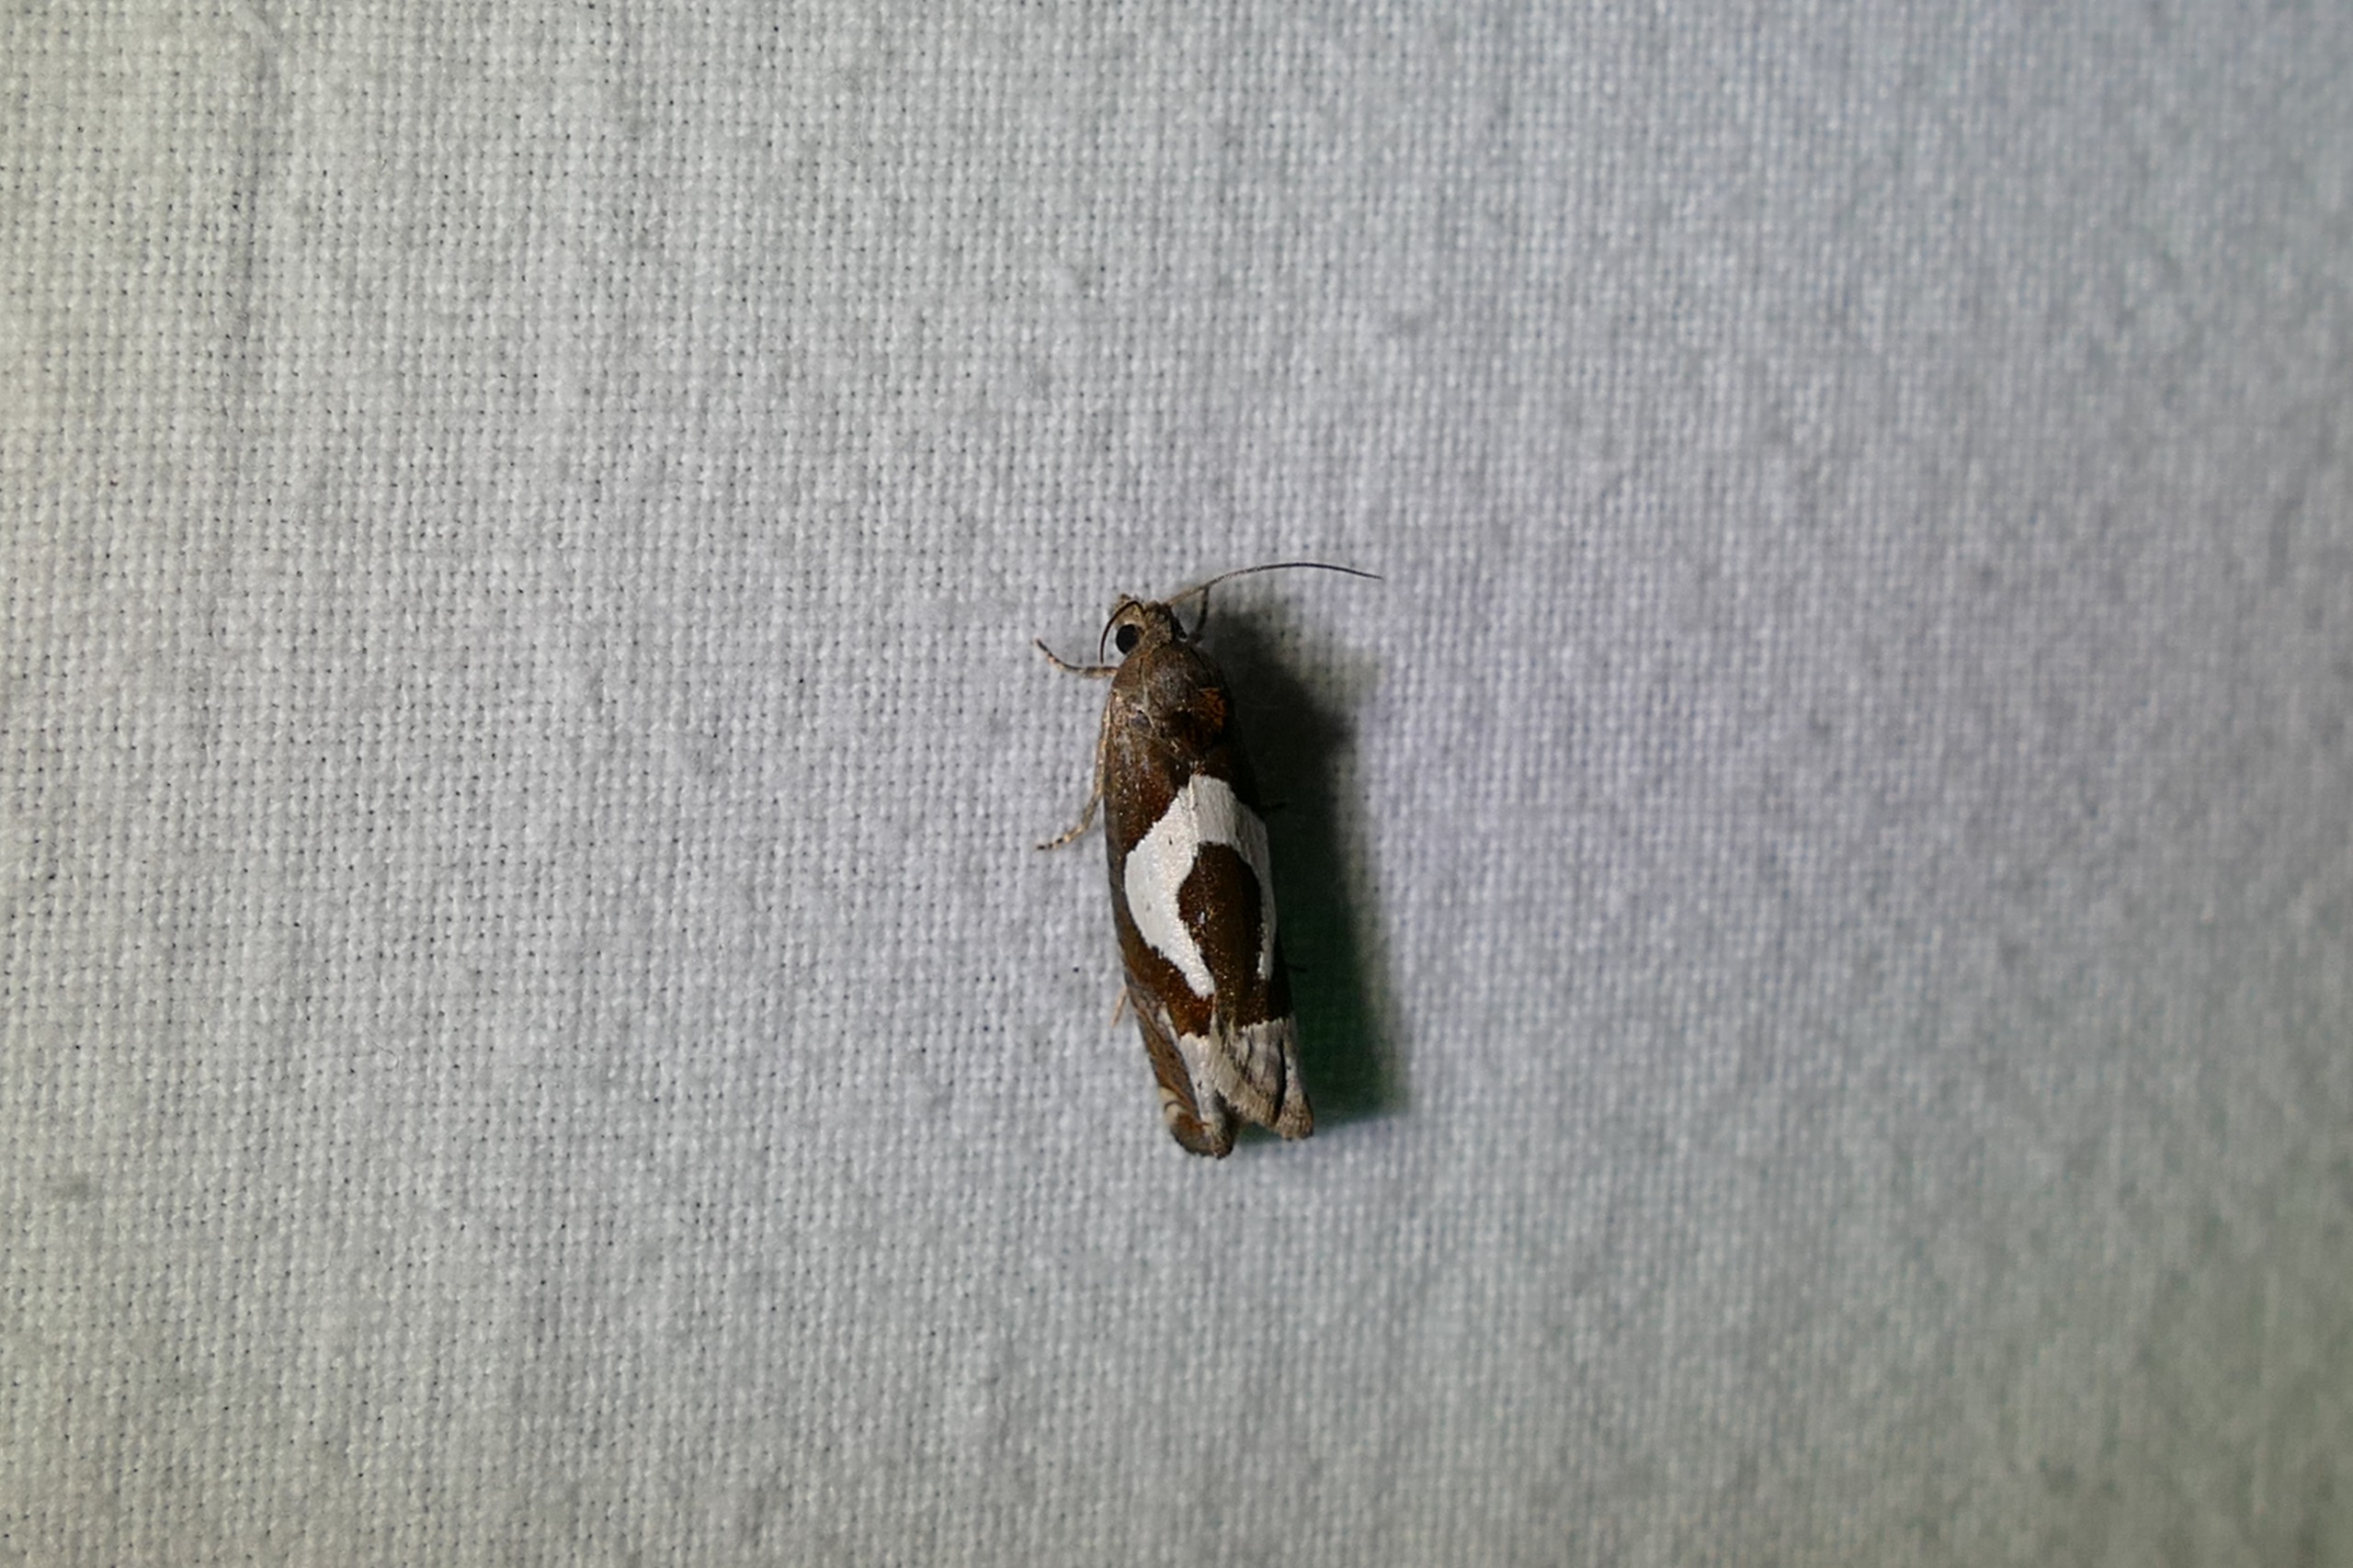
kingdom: Animalia
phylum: Arthropoda
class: Insecta
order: Lepidoptera
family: Tortricidae
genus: Epiblema
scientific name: Epiblema foenella
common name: Gråbynkegallevikler
